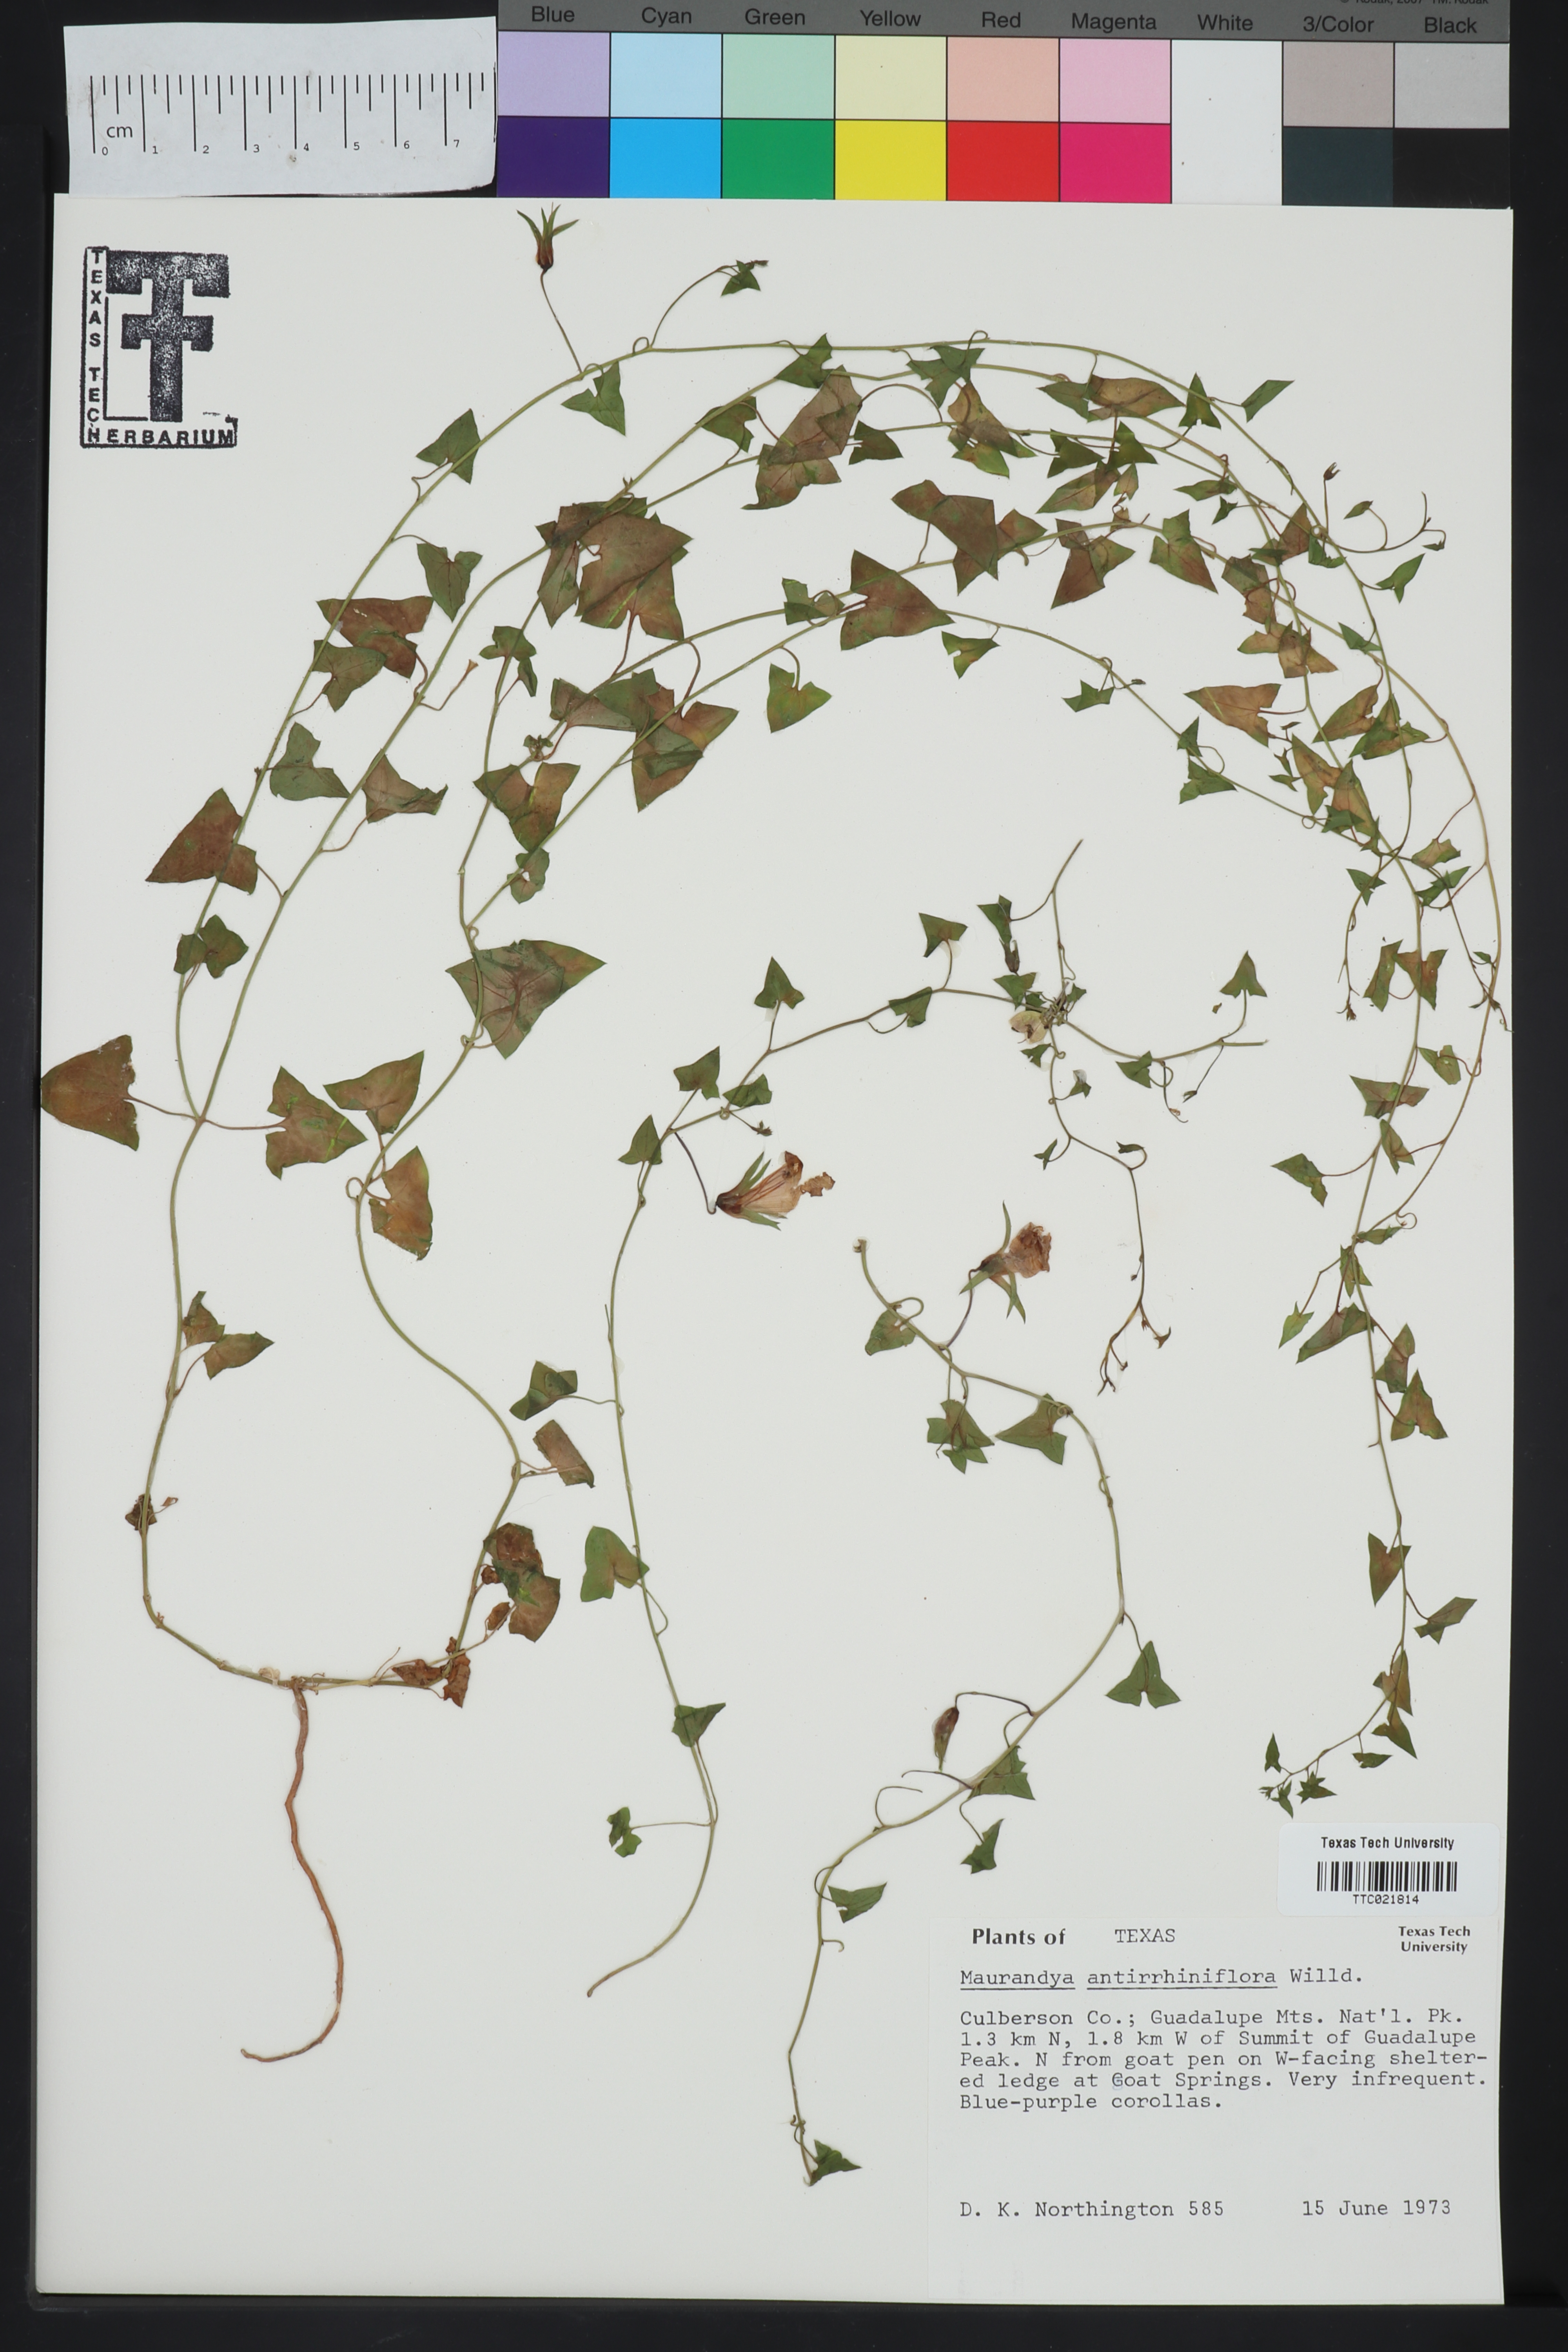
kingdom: Plantae
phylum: Tracheophyta
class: Magnoliopsida
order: Lamiales
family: Plantaginaceae
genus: Maurandella
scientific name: Maurandella antirrhiniflora
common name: Violet twining-snapdragon
